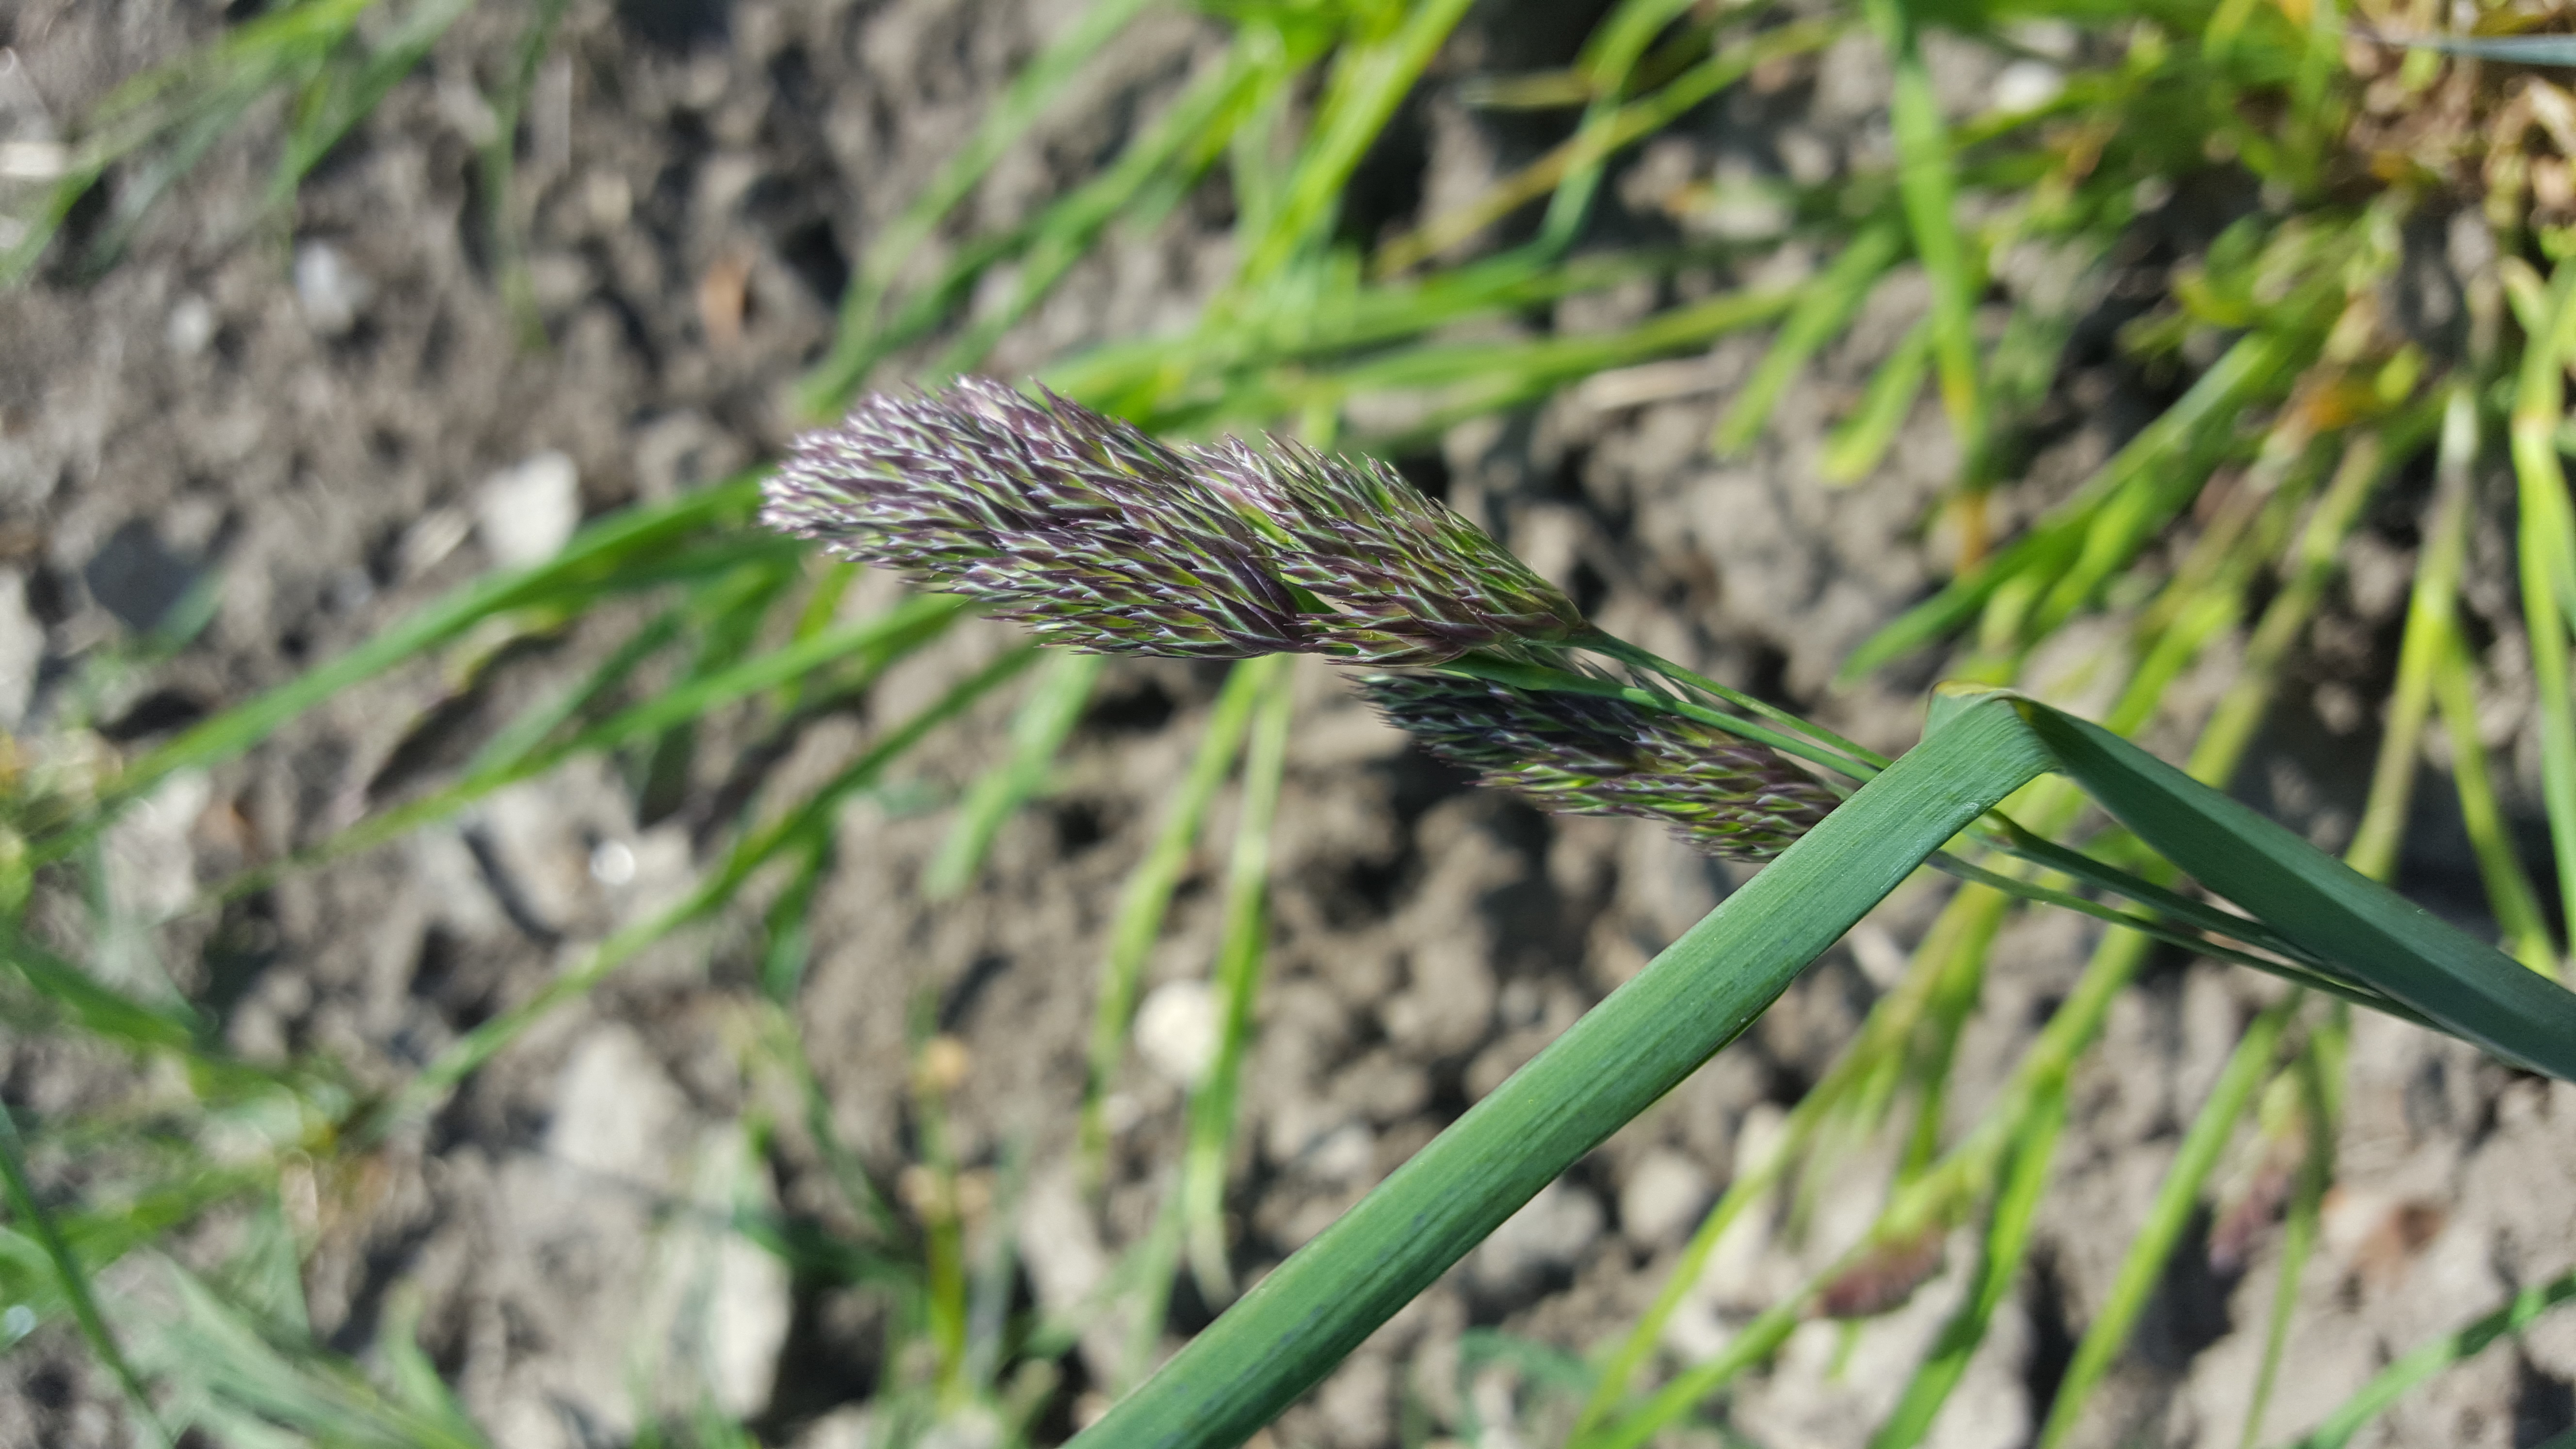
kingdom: Plantae
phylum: Tracheophyta
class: Liliopsida
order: Poales
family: Poaceae
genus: Dactylis
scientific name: Dactylis glomerata
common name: Orchardgrass
